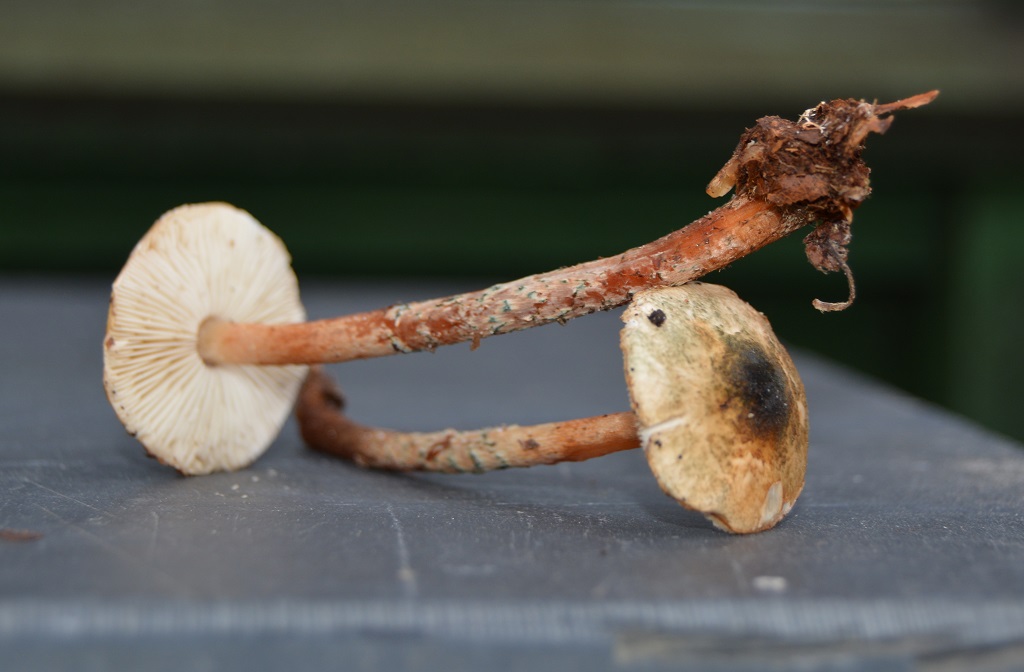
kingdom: Fungi
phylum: Basidiomycota
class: Agaricomycetes
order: Agaricales
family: Agaricaceae
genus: Lepiota
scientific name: Lepiota grangei
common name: grønskællet parasolhat
